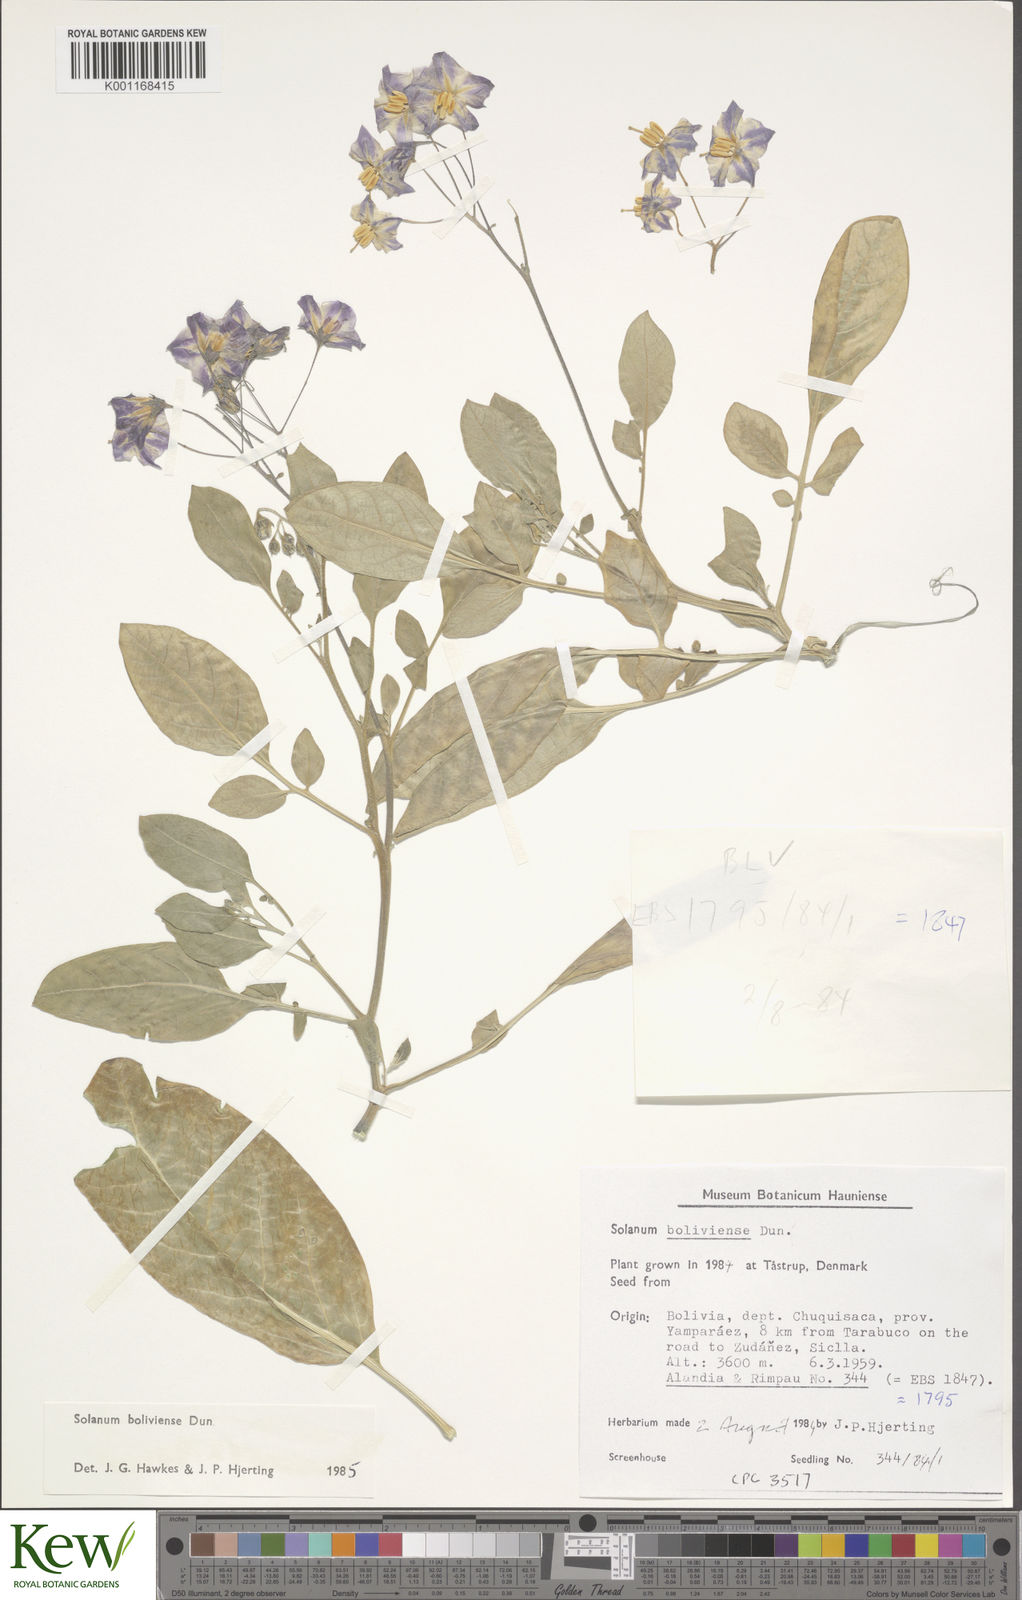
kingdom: Plantae
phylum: Tracheophyta
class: Magnoliopsida
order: Solanales
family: Solanaceae
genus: Solanum
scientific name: Solanum boliviense
